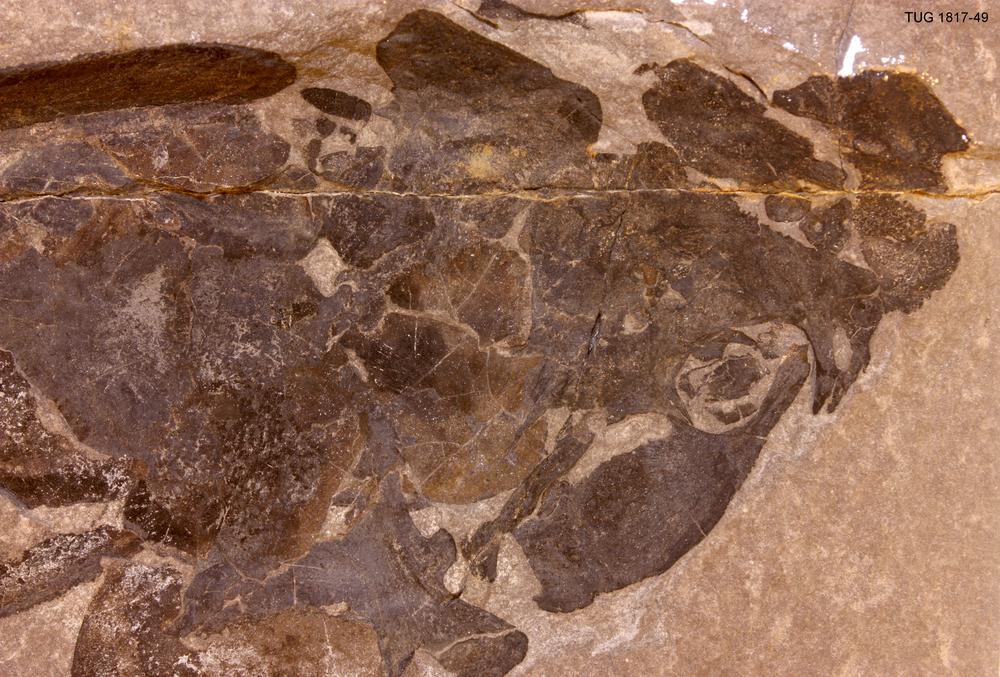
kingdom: Animalia
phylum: Chordata
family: Coccosteidae
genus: Coccosteus
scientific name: Coccosteus cuspidatus
